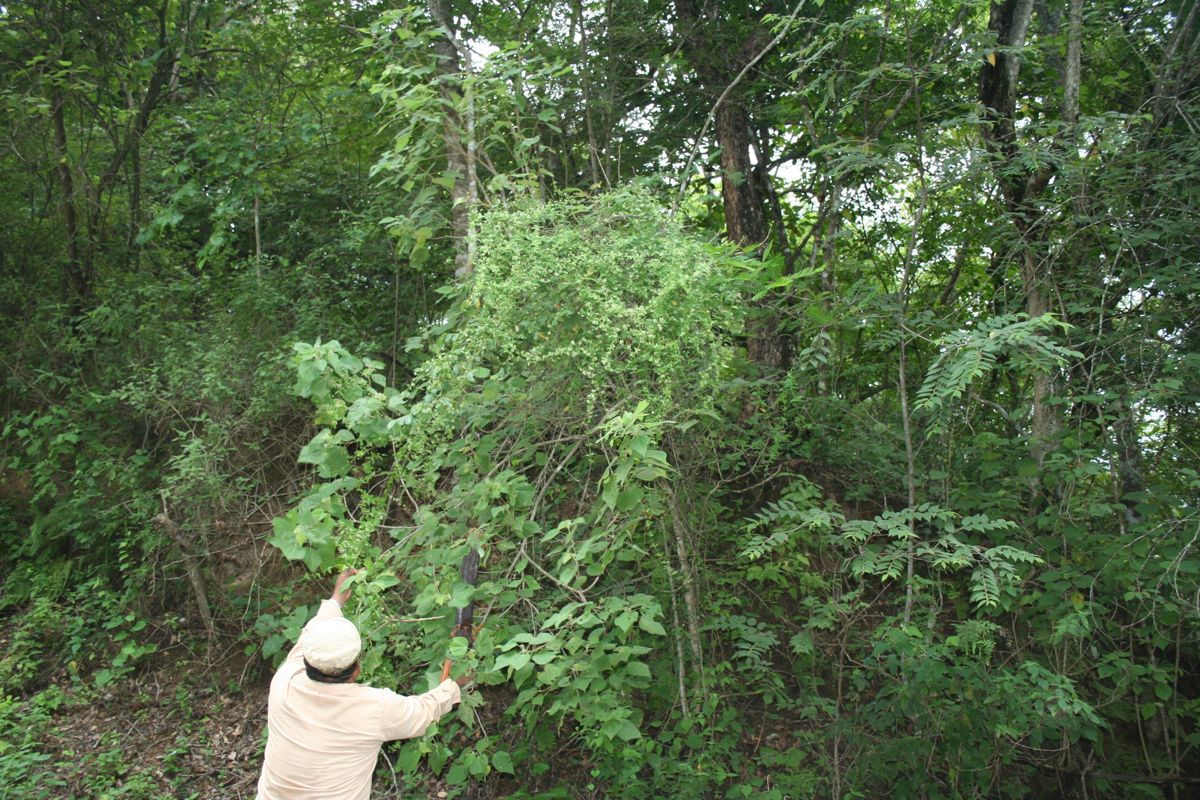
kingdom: Plantae
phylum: Tracheophyta
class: Magnoliopsida
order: Gentianales
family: Apocynaceae
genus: Vailia
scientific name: Vailia anomala
